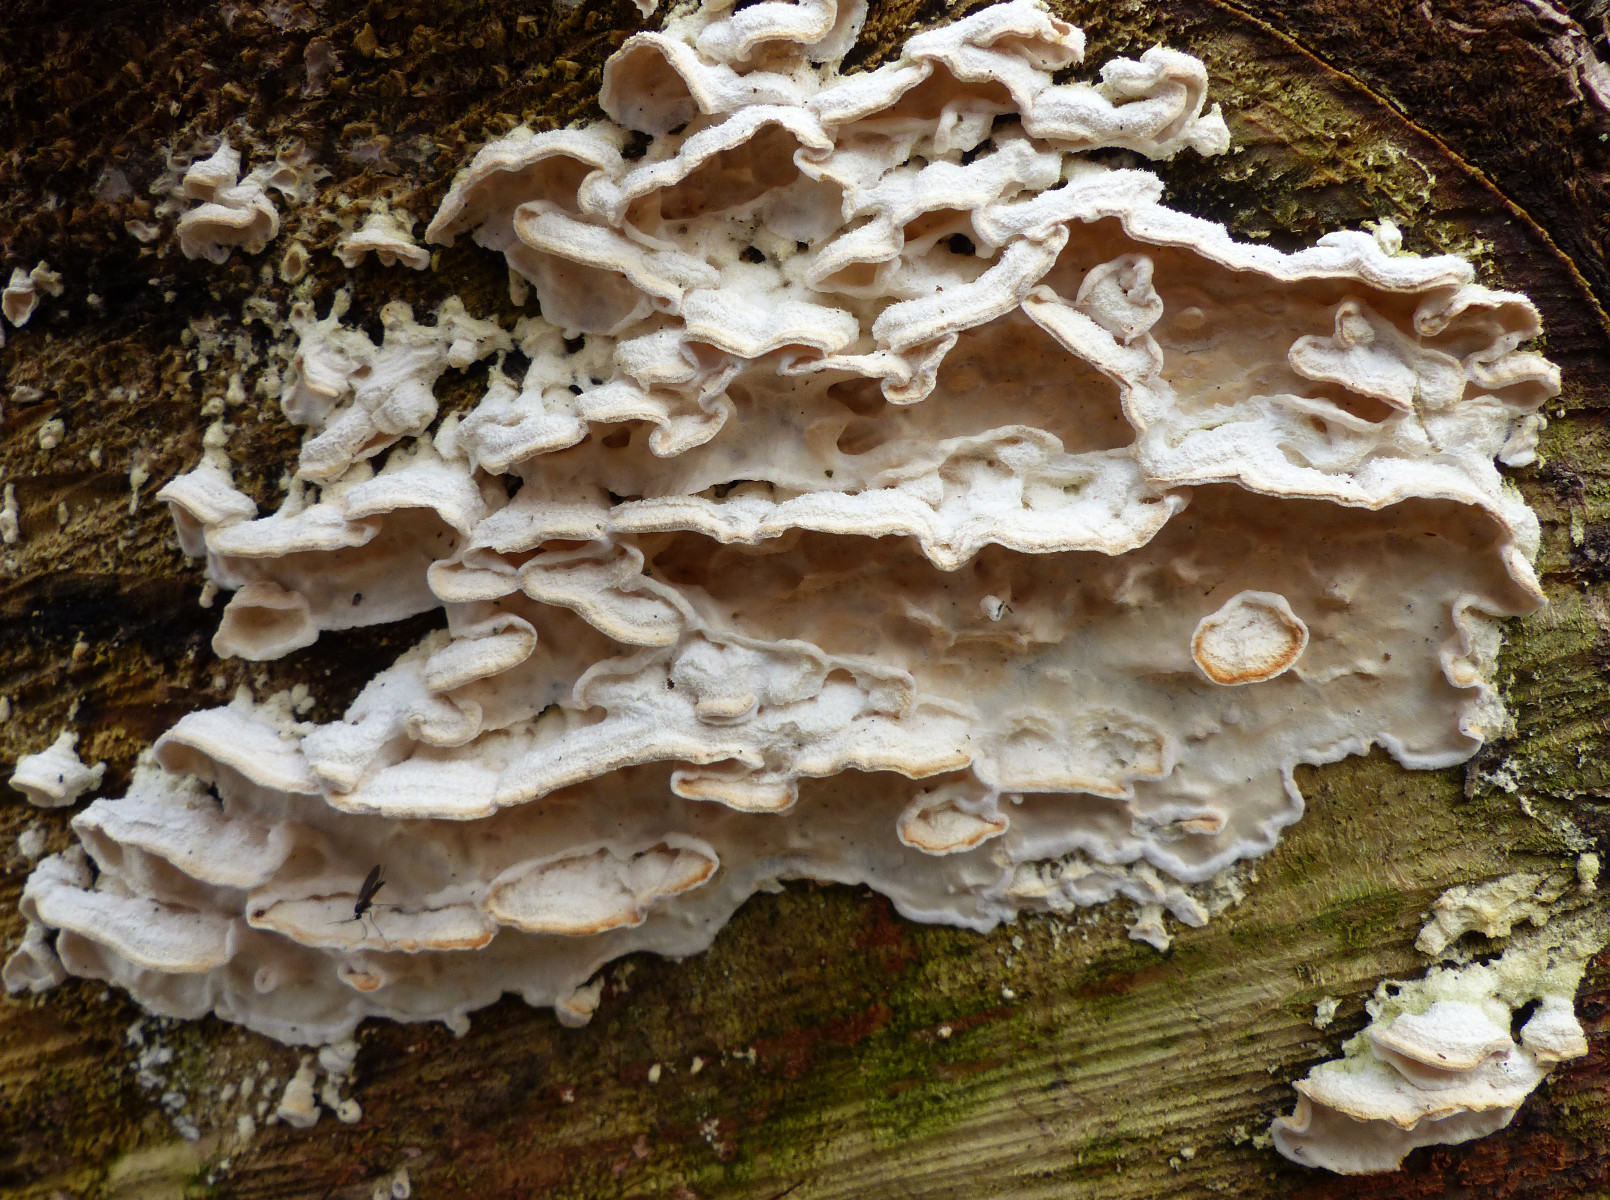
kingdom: Fungi
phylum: Basidiomycota
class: Agaricomycetes
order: Polyporales
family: Incrustoporiaceae
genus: Skeletocutis
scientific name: Skeletocutis amorpha
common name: orange krystalporesvamp
